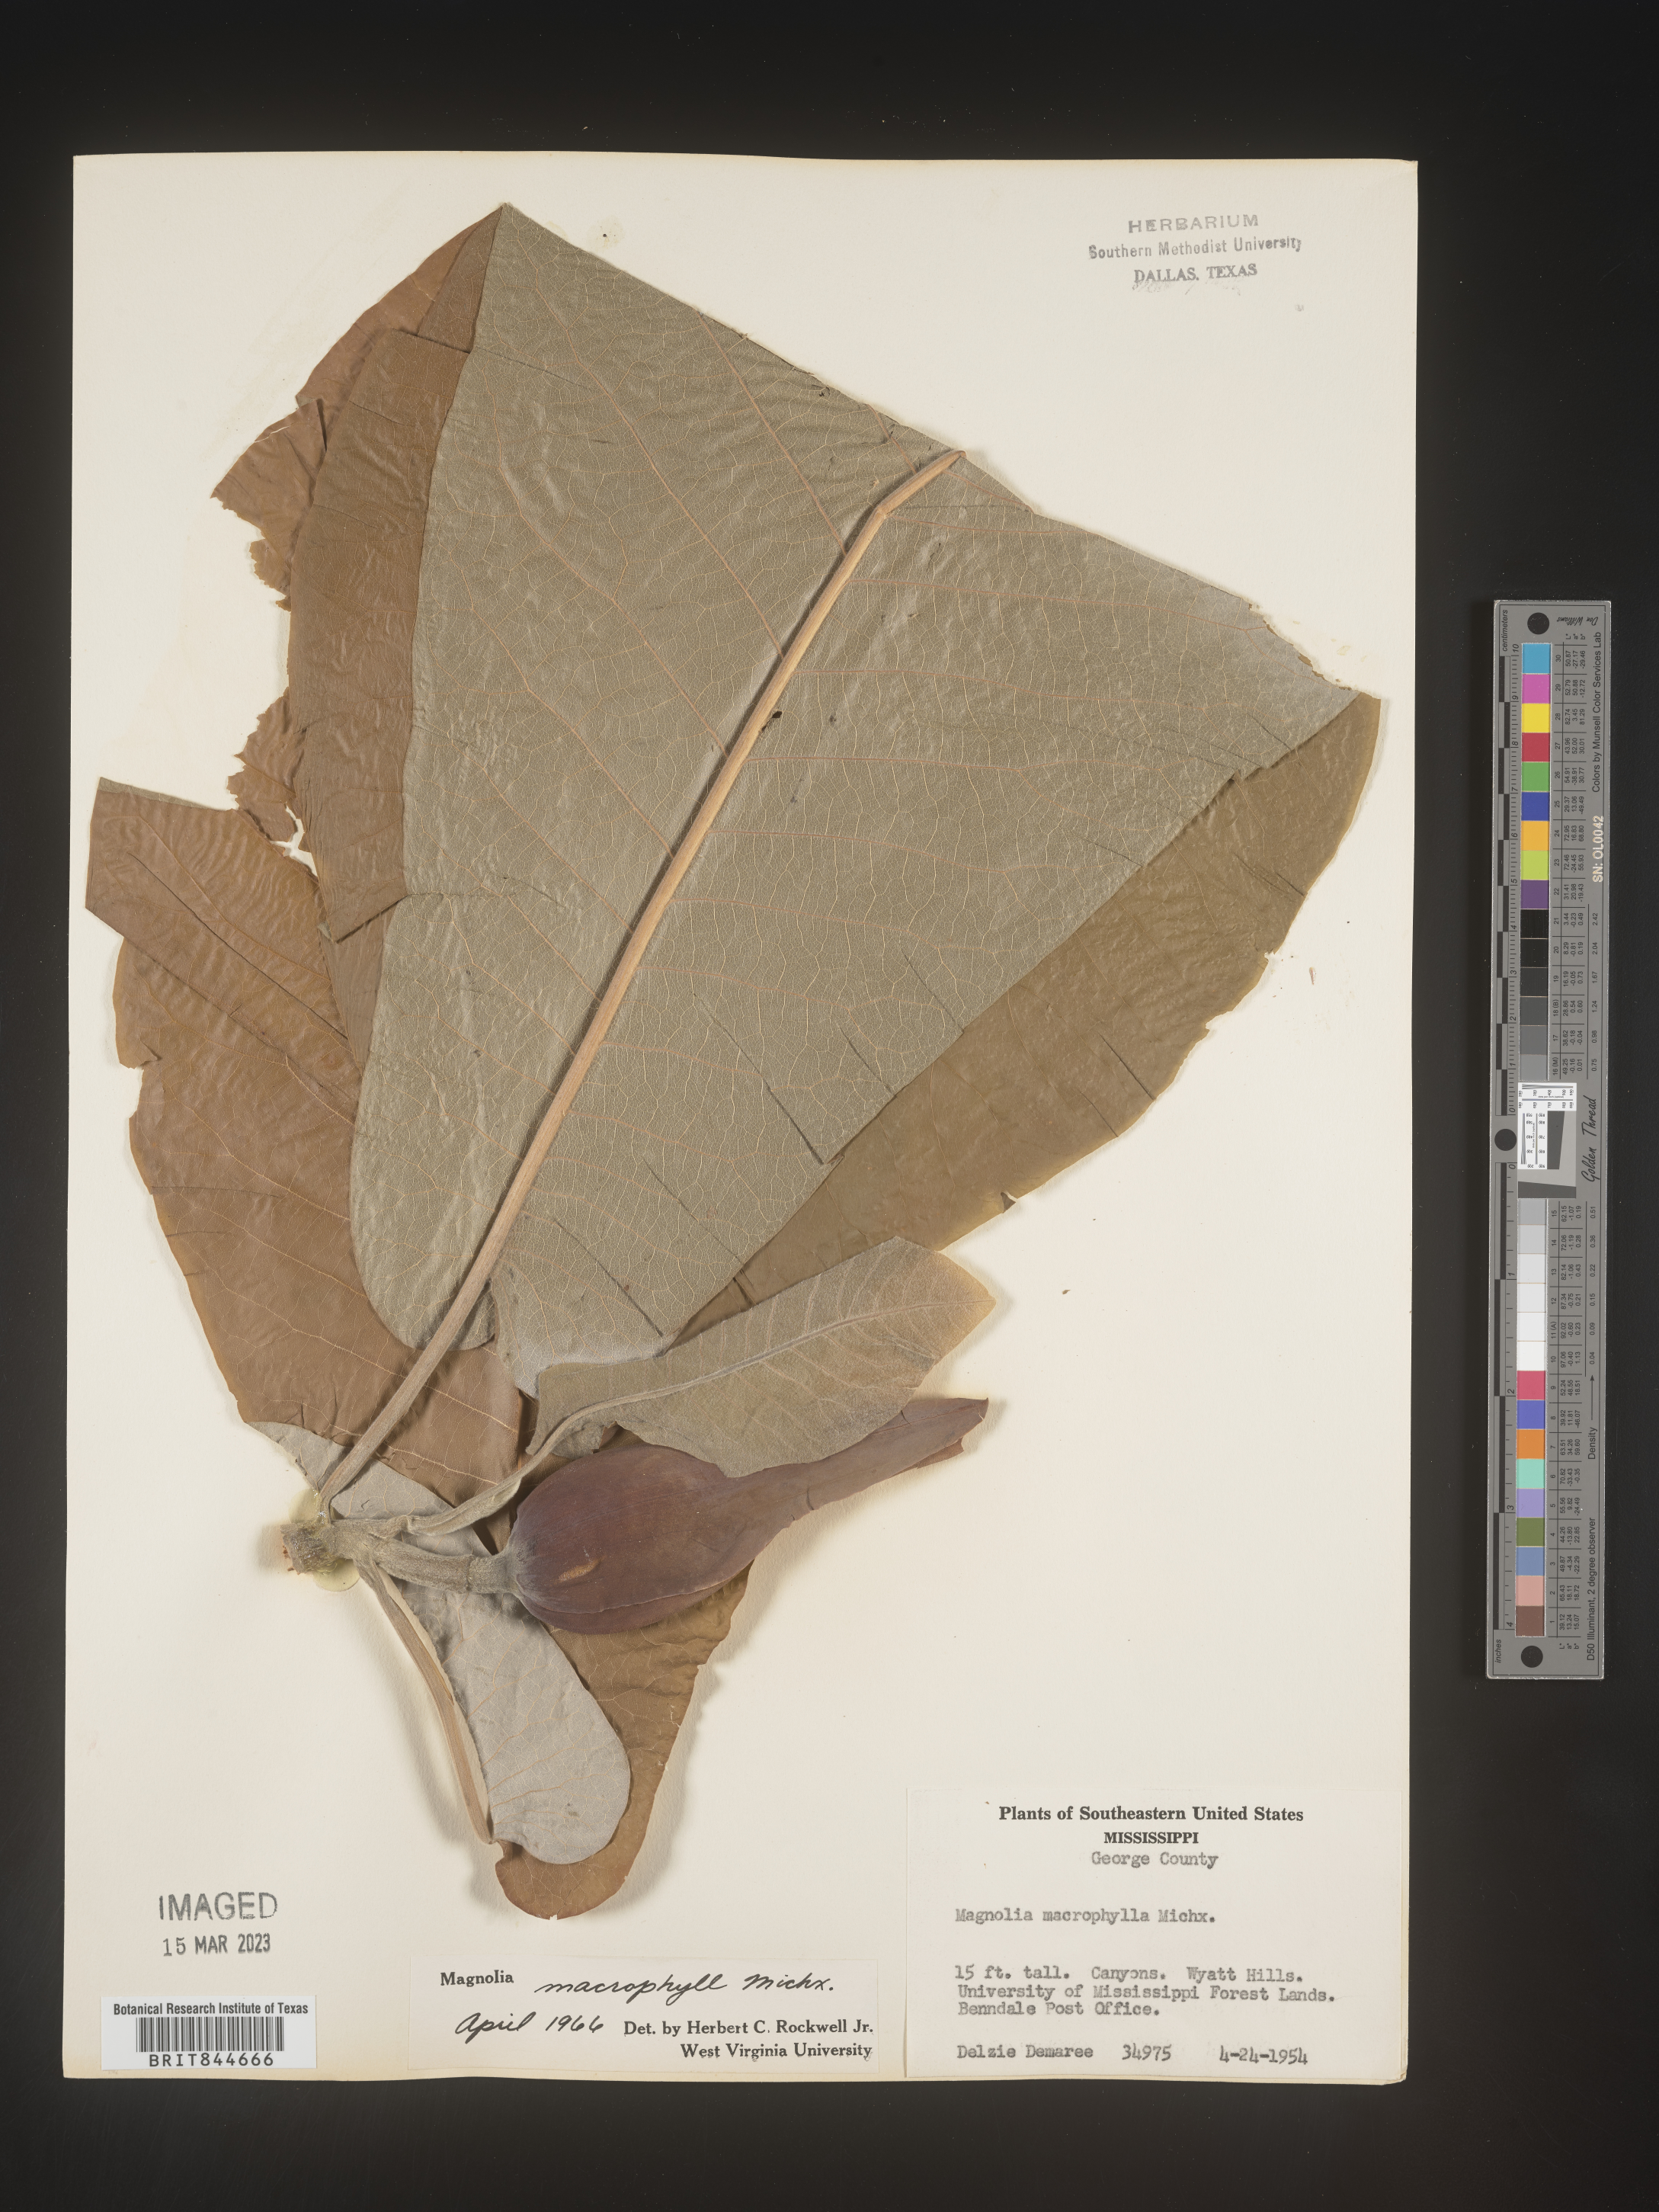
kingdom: Plantae
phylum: Tracheophyta
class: Magnoliopsida
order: Magnoliales
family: Magnoliaceae
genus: Magnolia
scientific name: Magnolia macrophylla
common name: Big-leaf magnolia
